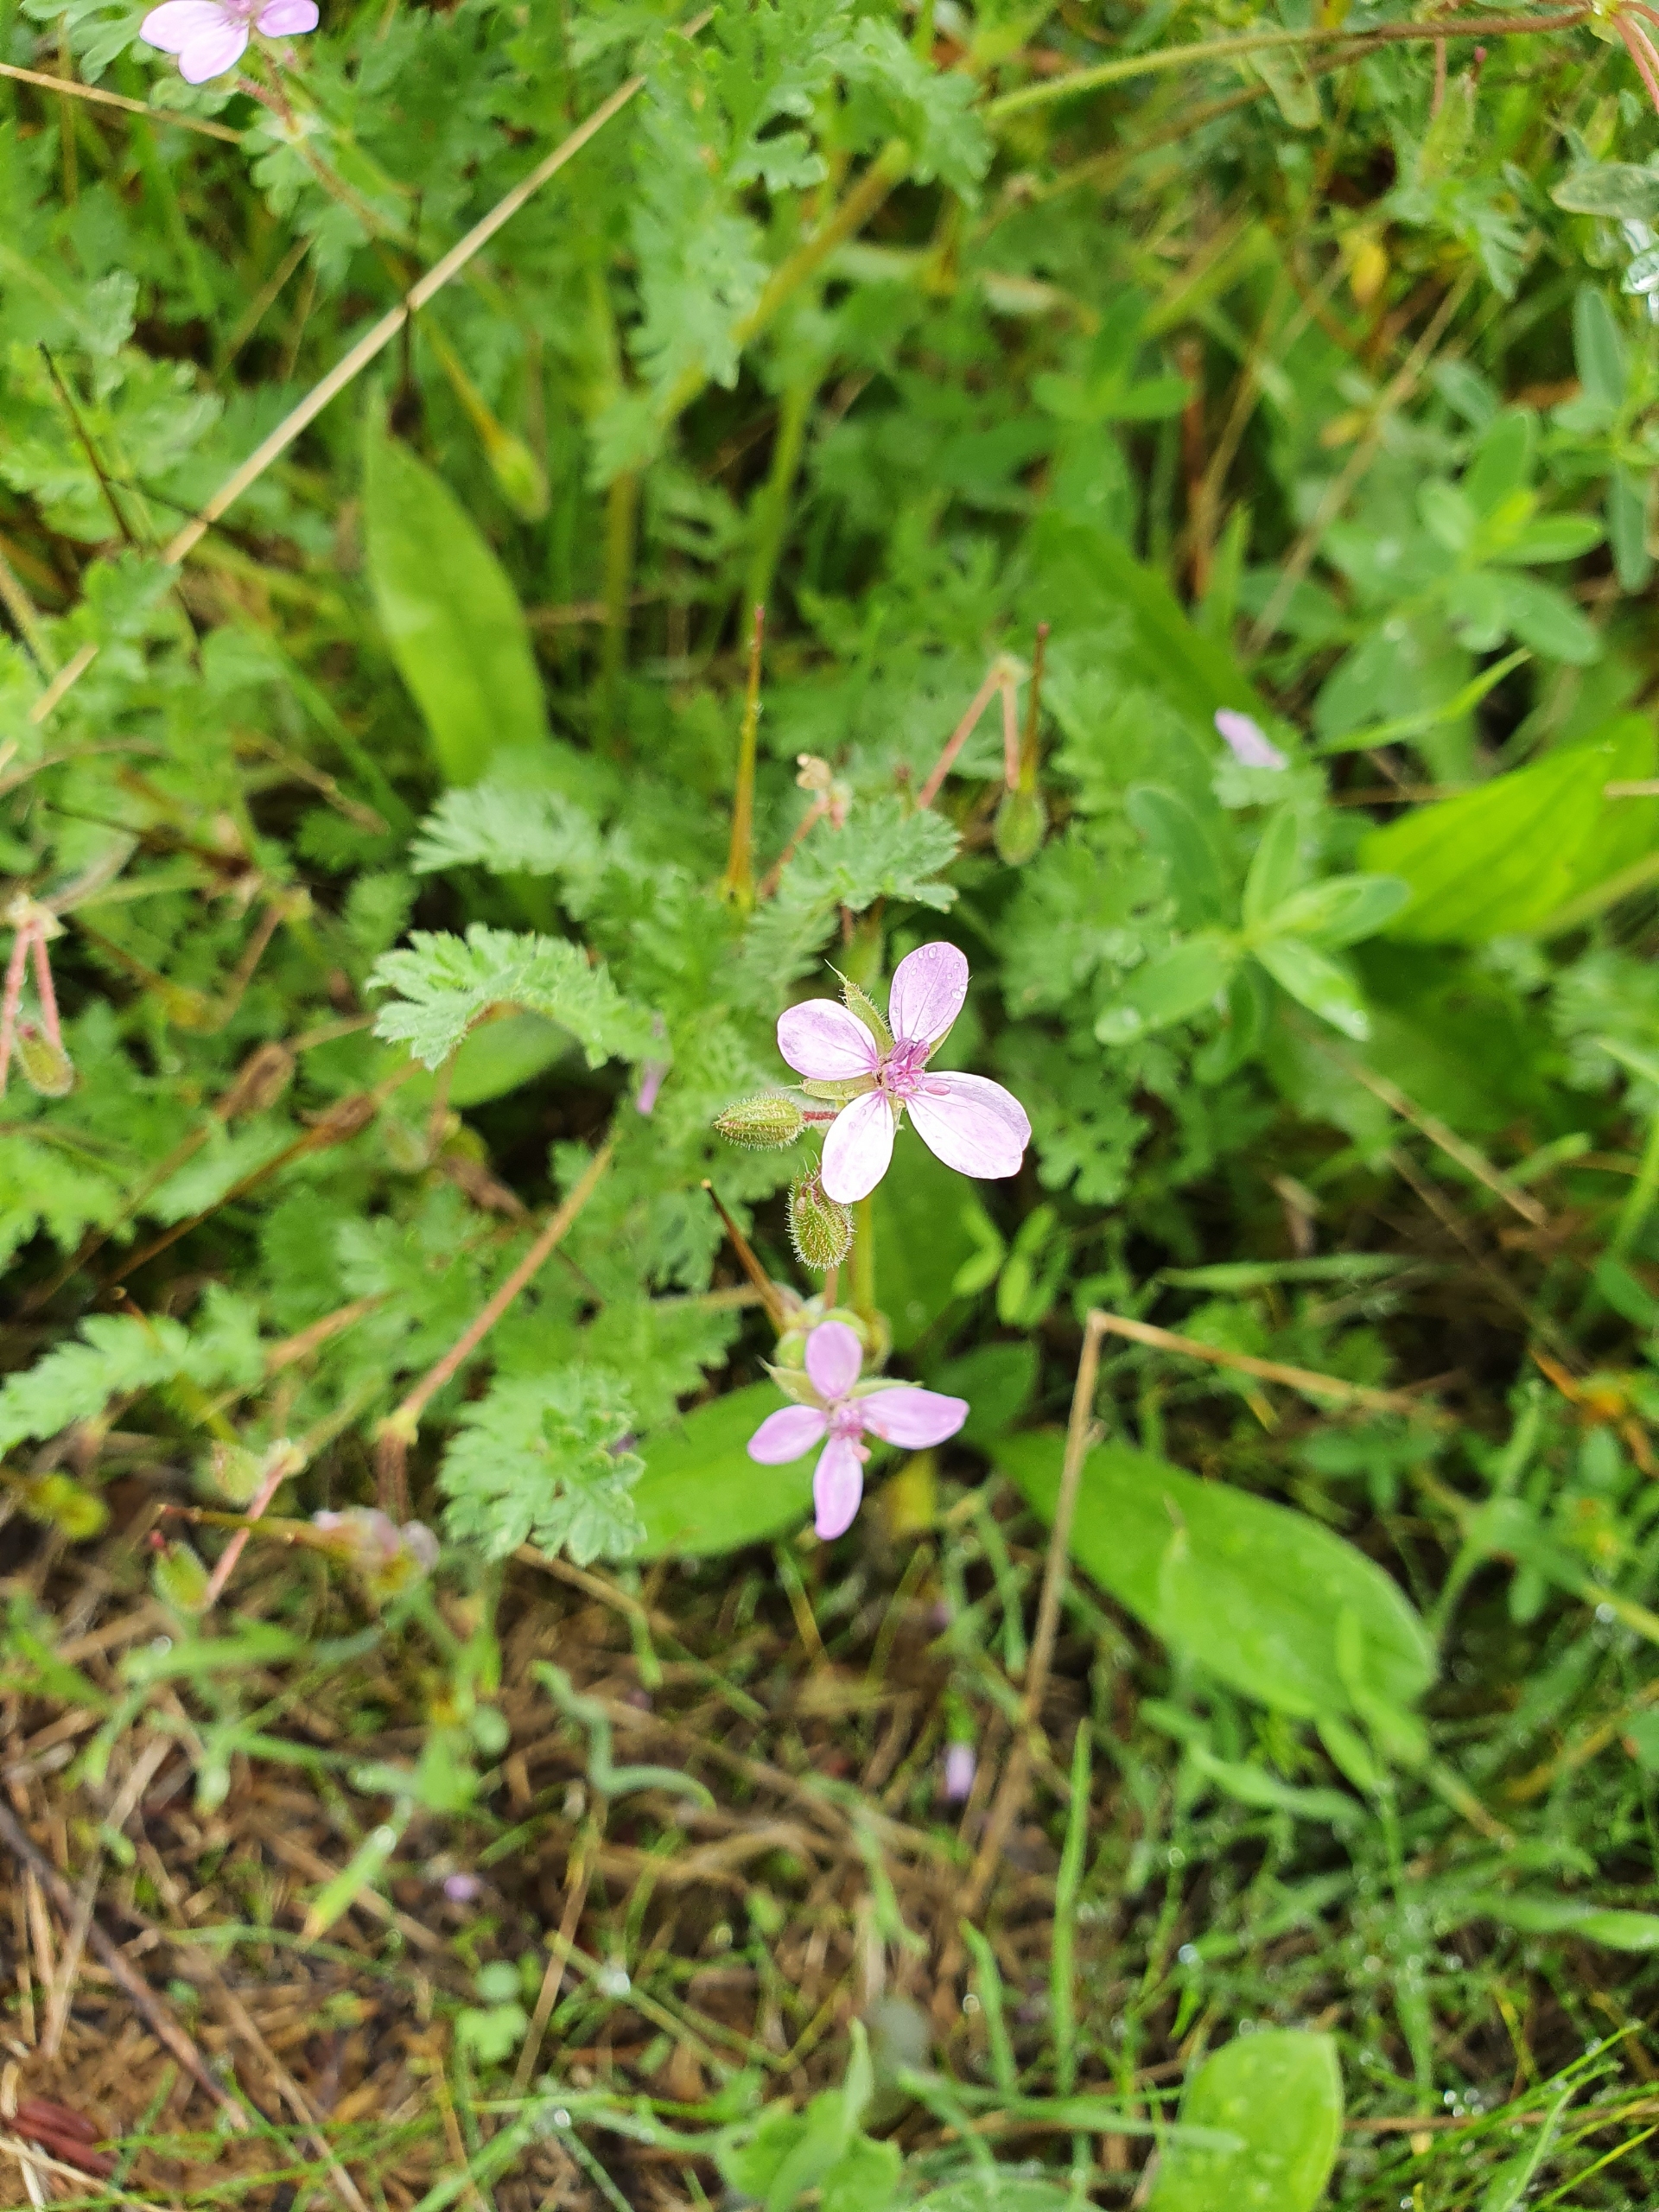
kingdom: Plantae
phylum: Tracheophyta
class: Magnoliopsida
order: Geraniales
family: Geraniaceae
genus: Erodium
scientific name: Erodium cicutarium
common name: Hejrenæb
